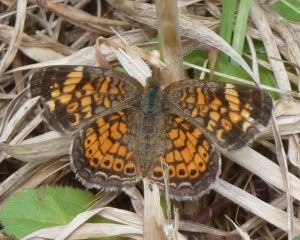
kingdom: Animalia
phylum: Arthropoda
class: Insecta
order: Lepidoptera
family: Nymphalidae
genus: Phyciodes
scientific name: Phyciodes tharos
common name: Northern Crescent
